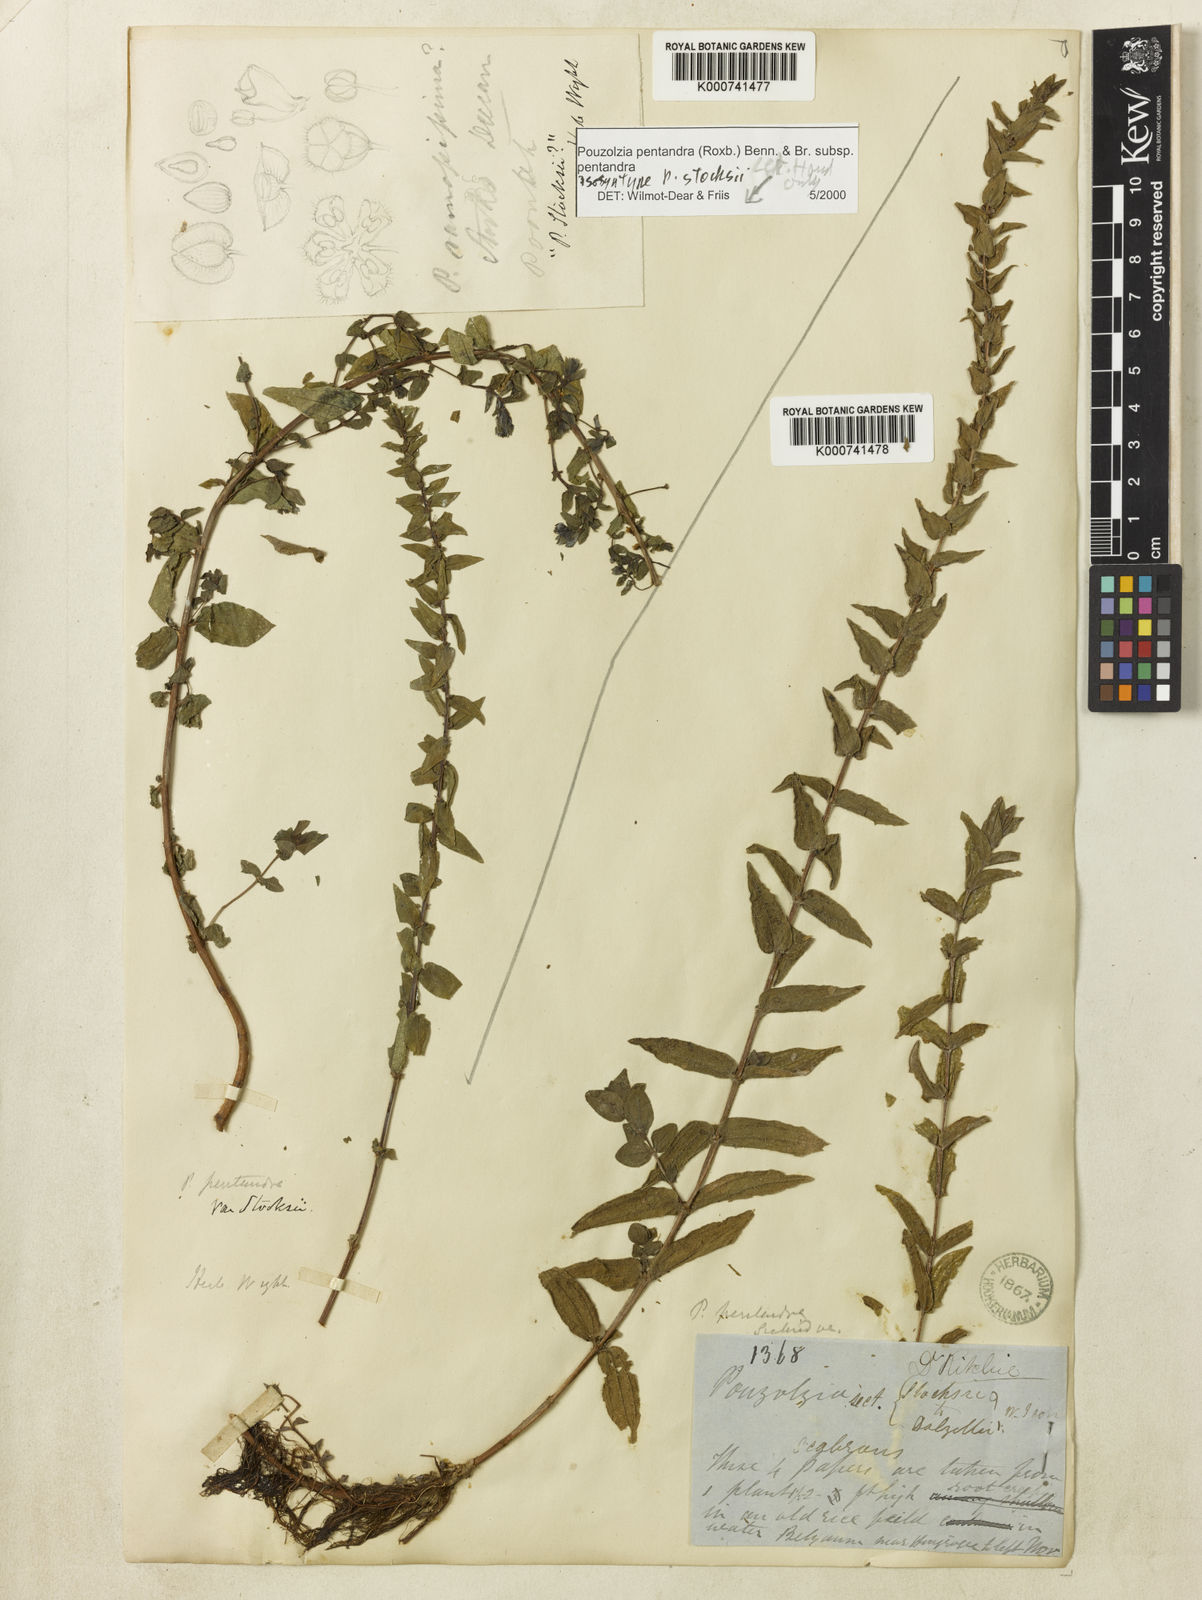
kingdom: Plantae
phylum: Tracheophyta
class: Magnoliopsida
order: Rosales
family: Urticaceae
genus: Gonostegia
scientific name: Gonostegia pentandra
